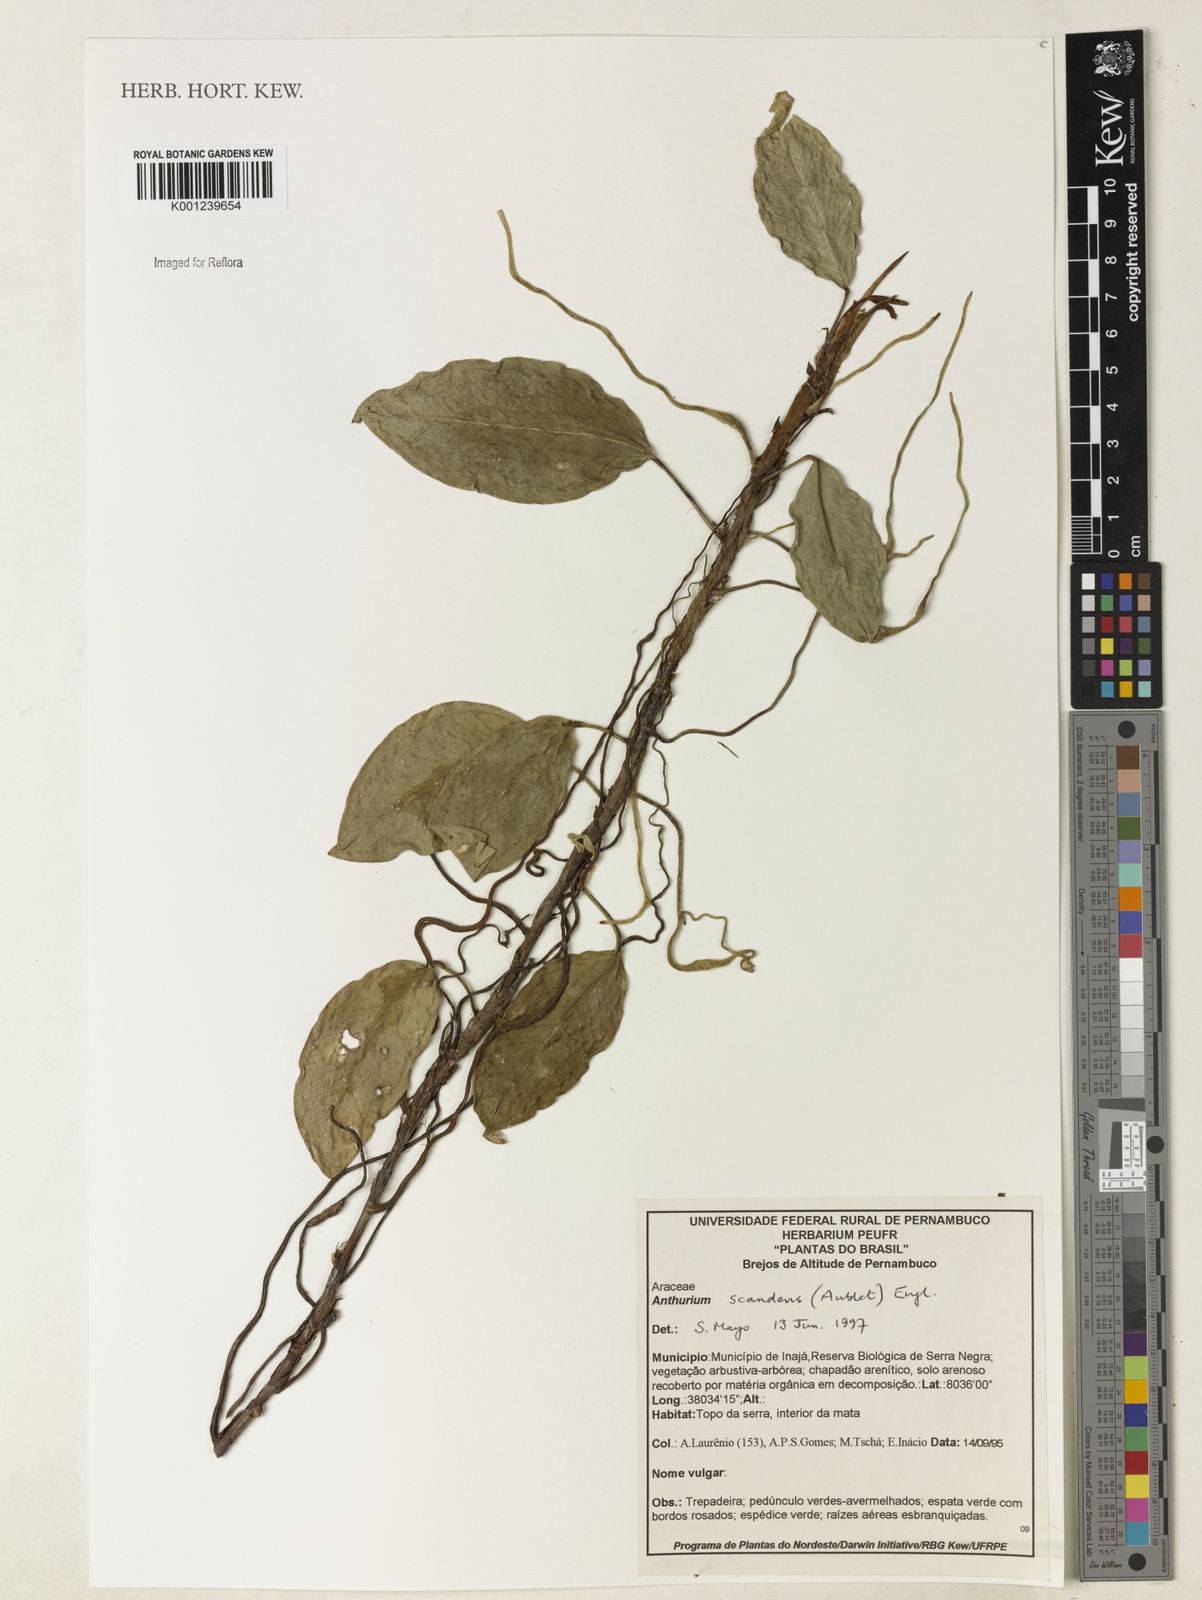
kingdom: Plantae
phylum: Tracheophyta
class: Liliopsida
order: Alismatales
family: Araceae
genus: Anthurium
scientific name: Anthurium scandens
